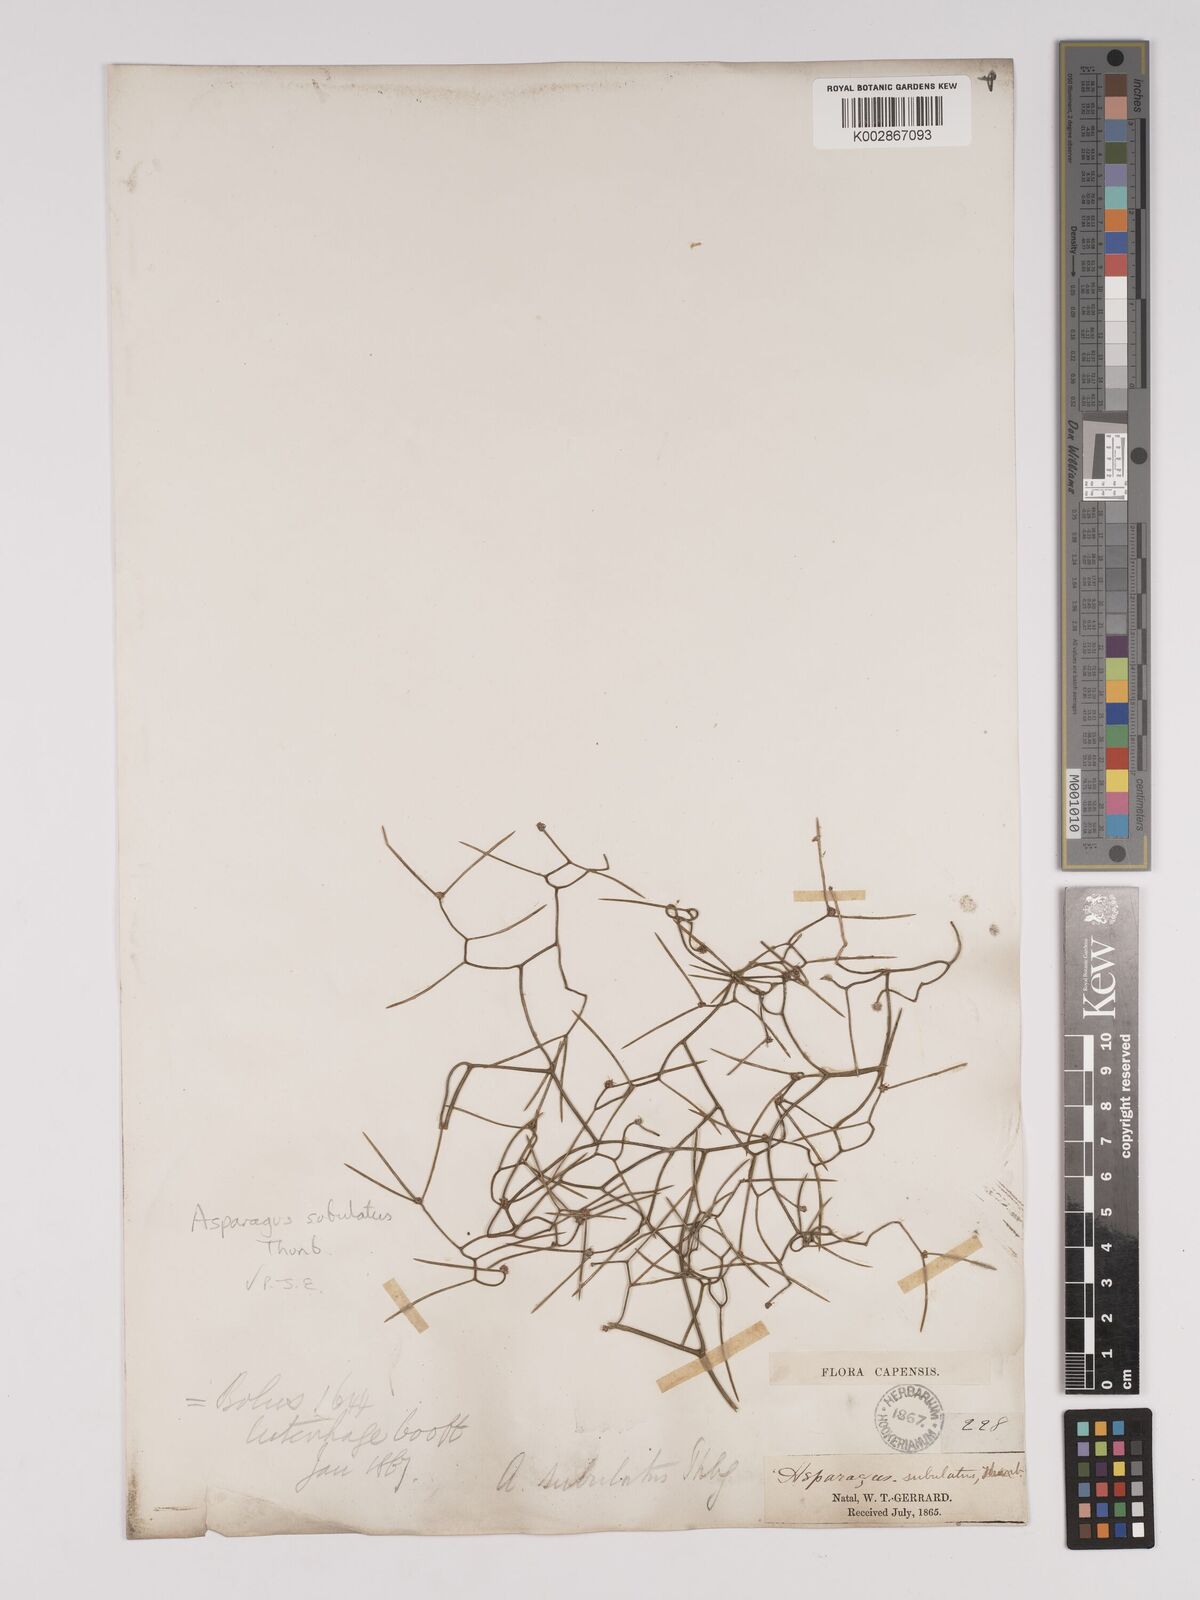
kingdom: Plantae
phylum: Tracheophyta
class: Liliopsida
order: Asparagales
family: Asparagaceae
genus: Asparagus
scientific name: Asparagus subulatus
